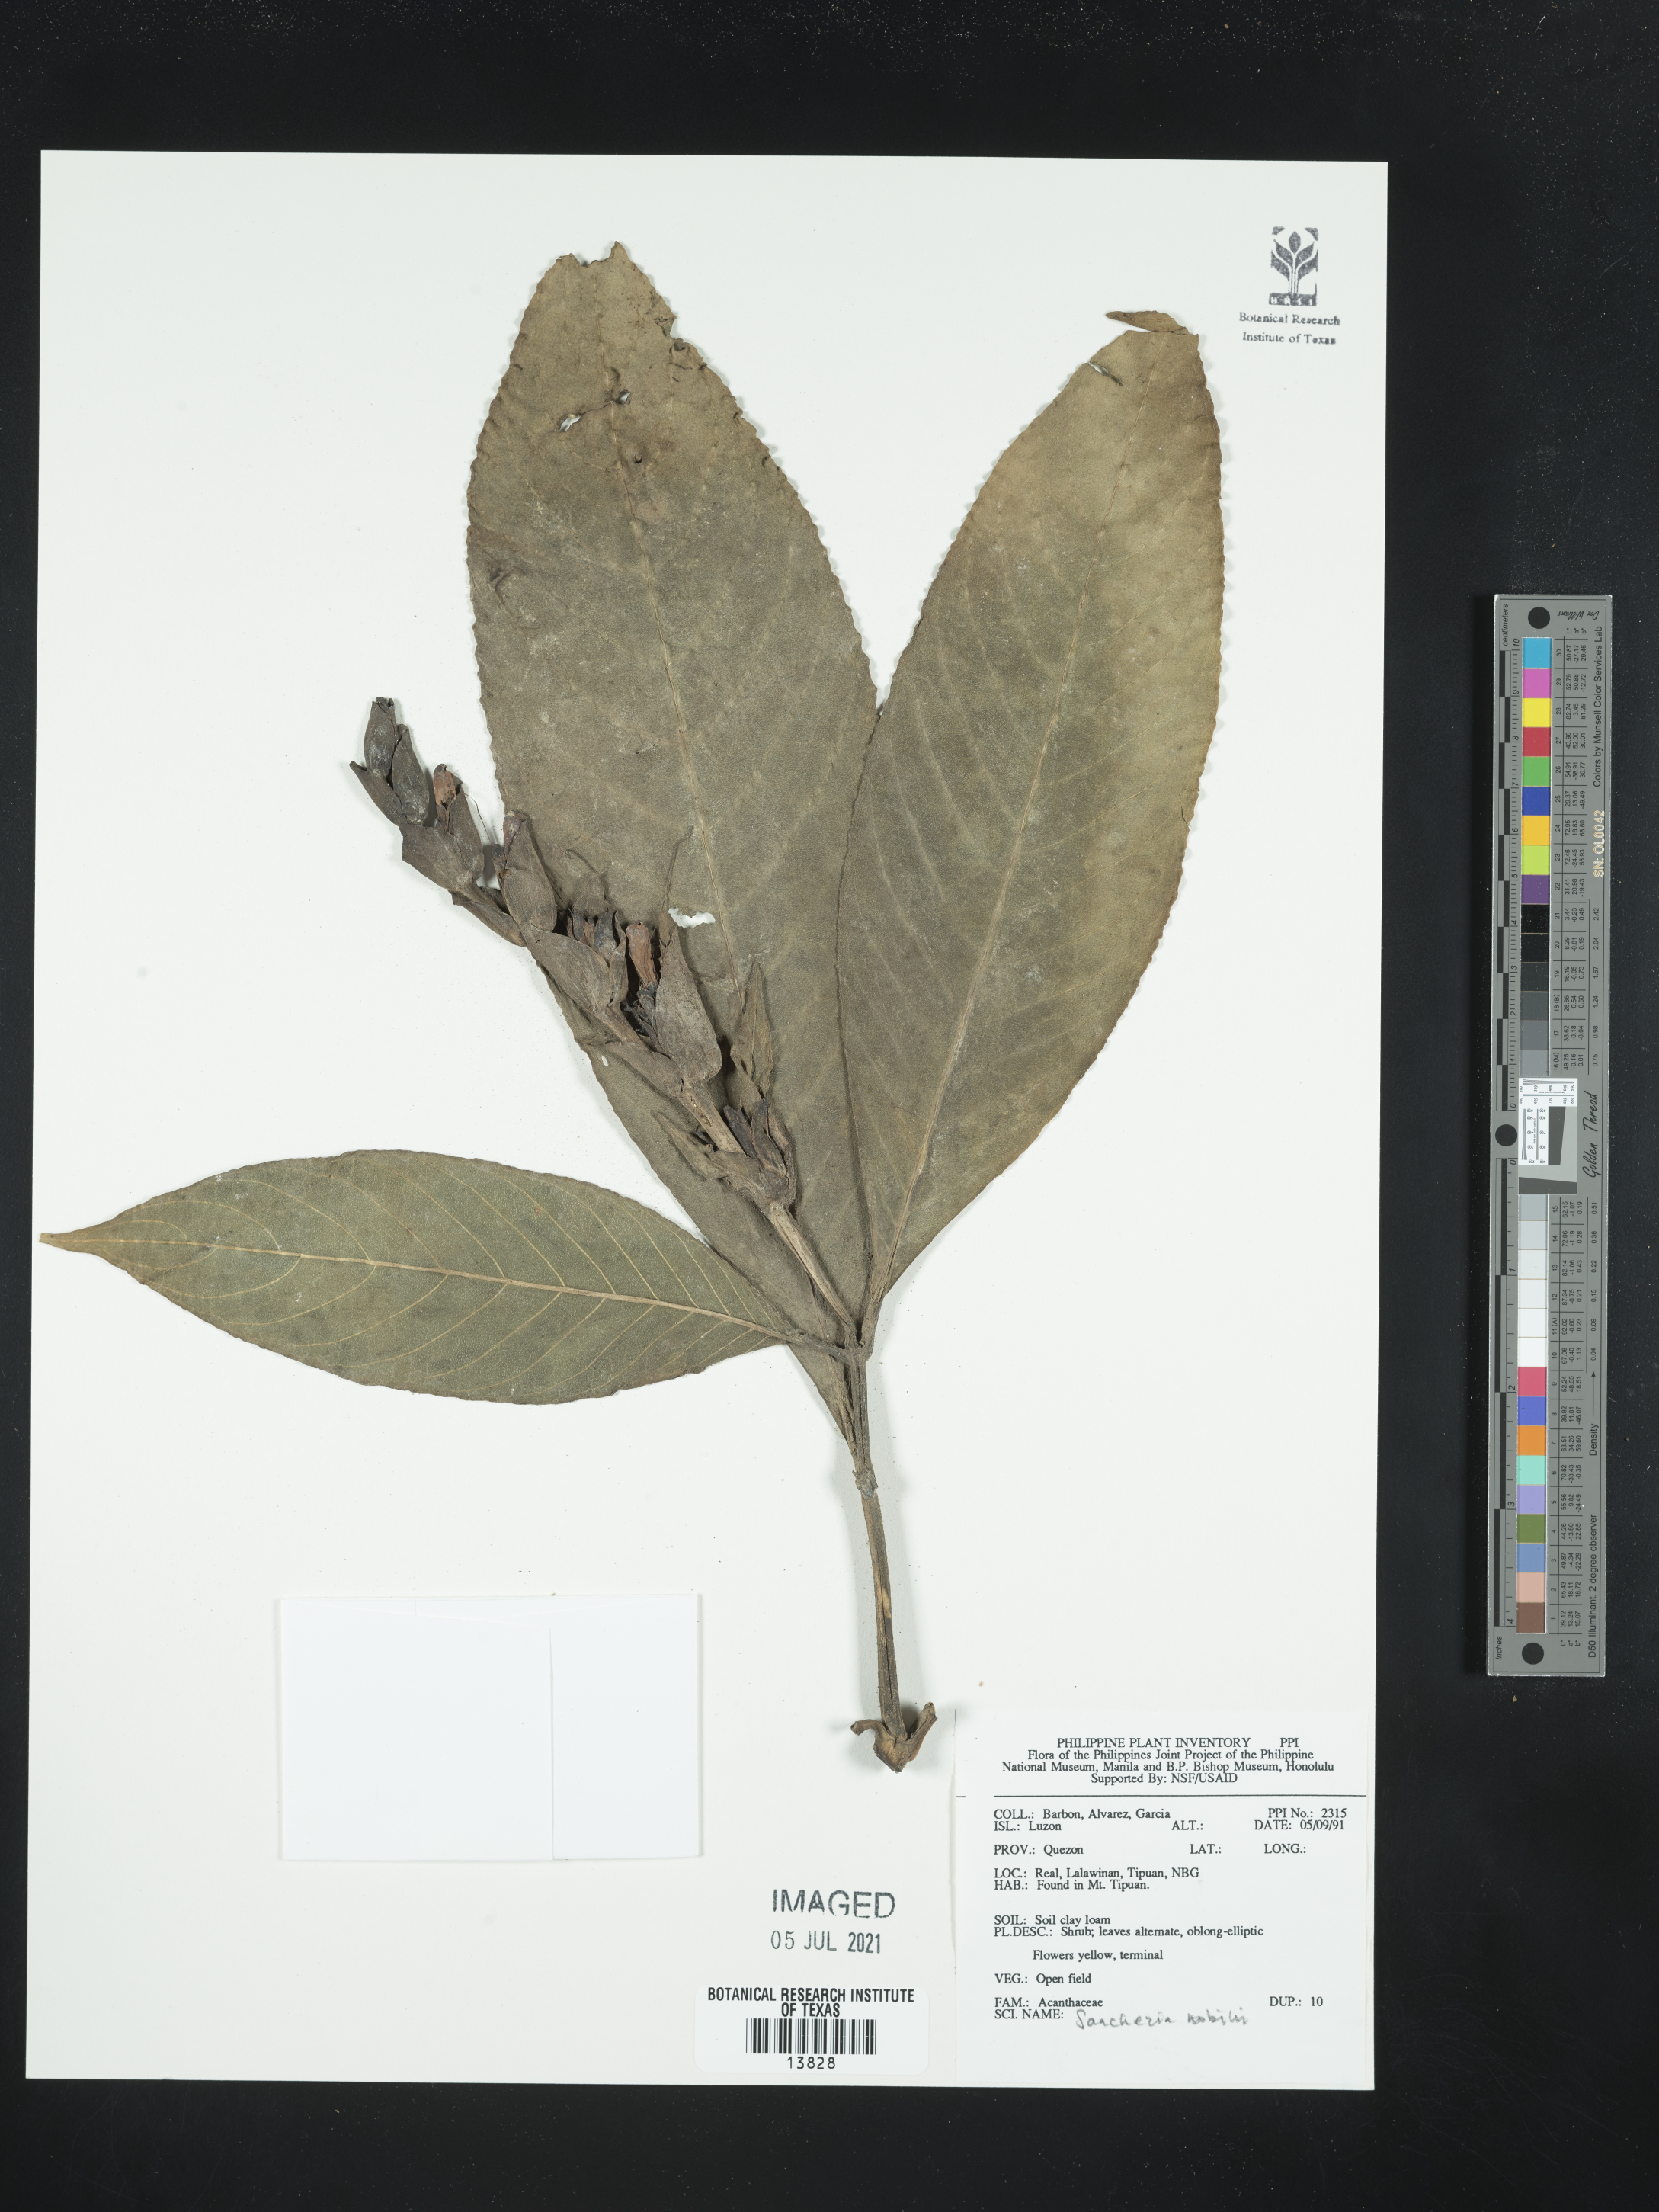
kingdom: Plantae
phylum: Tracheophyta
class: Magnoliopsida
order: Lamiales
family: Acanthaceae
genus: Sanchezia
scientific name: Sanchezia oblonga
